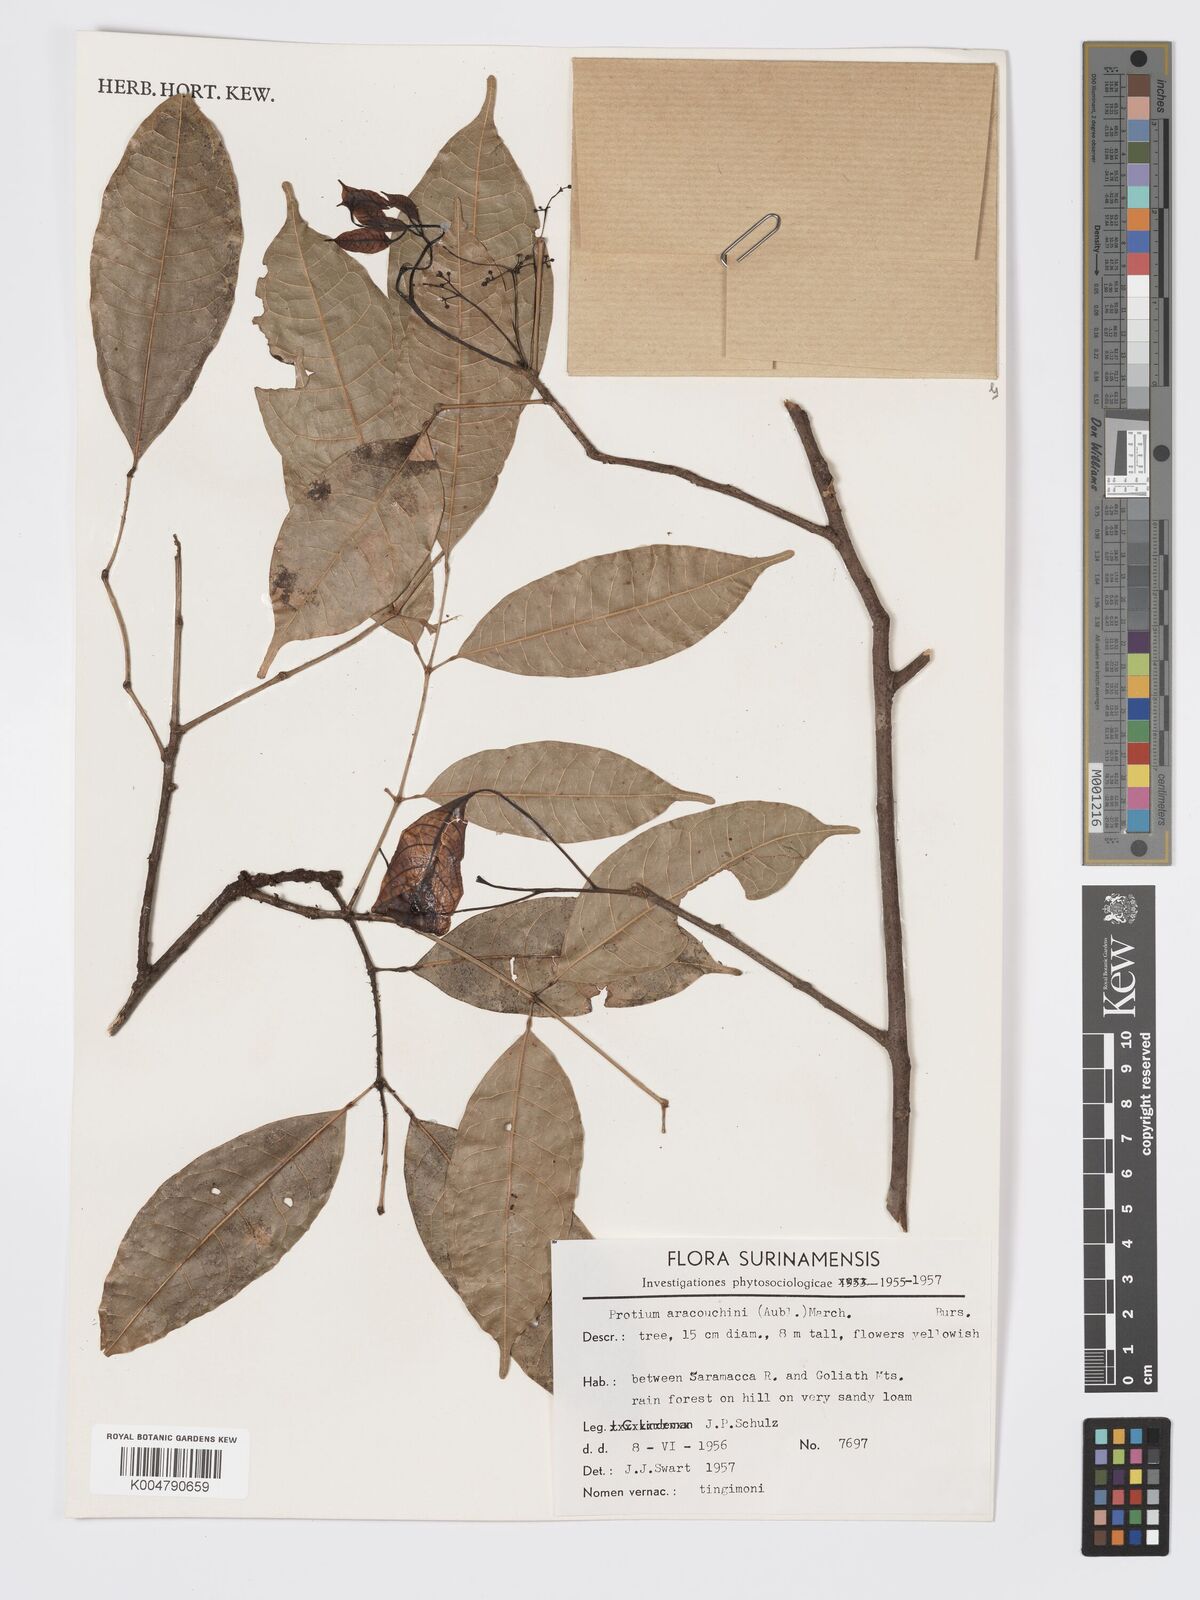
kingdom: Plantae
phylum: Tracheophyta
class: Magnoliopsida
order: Sapindales
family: Burseraceae
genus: Protium
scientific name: Protium aracouchini
